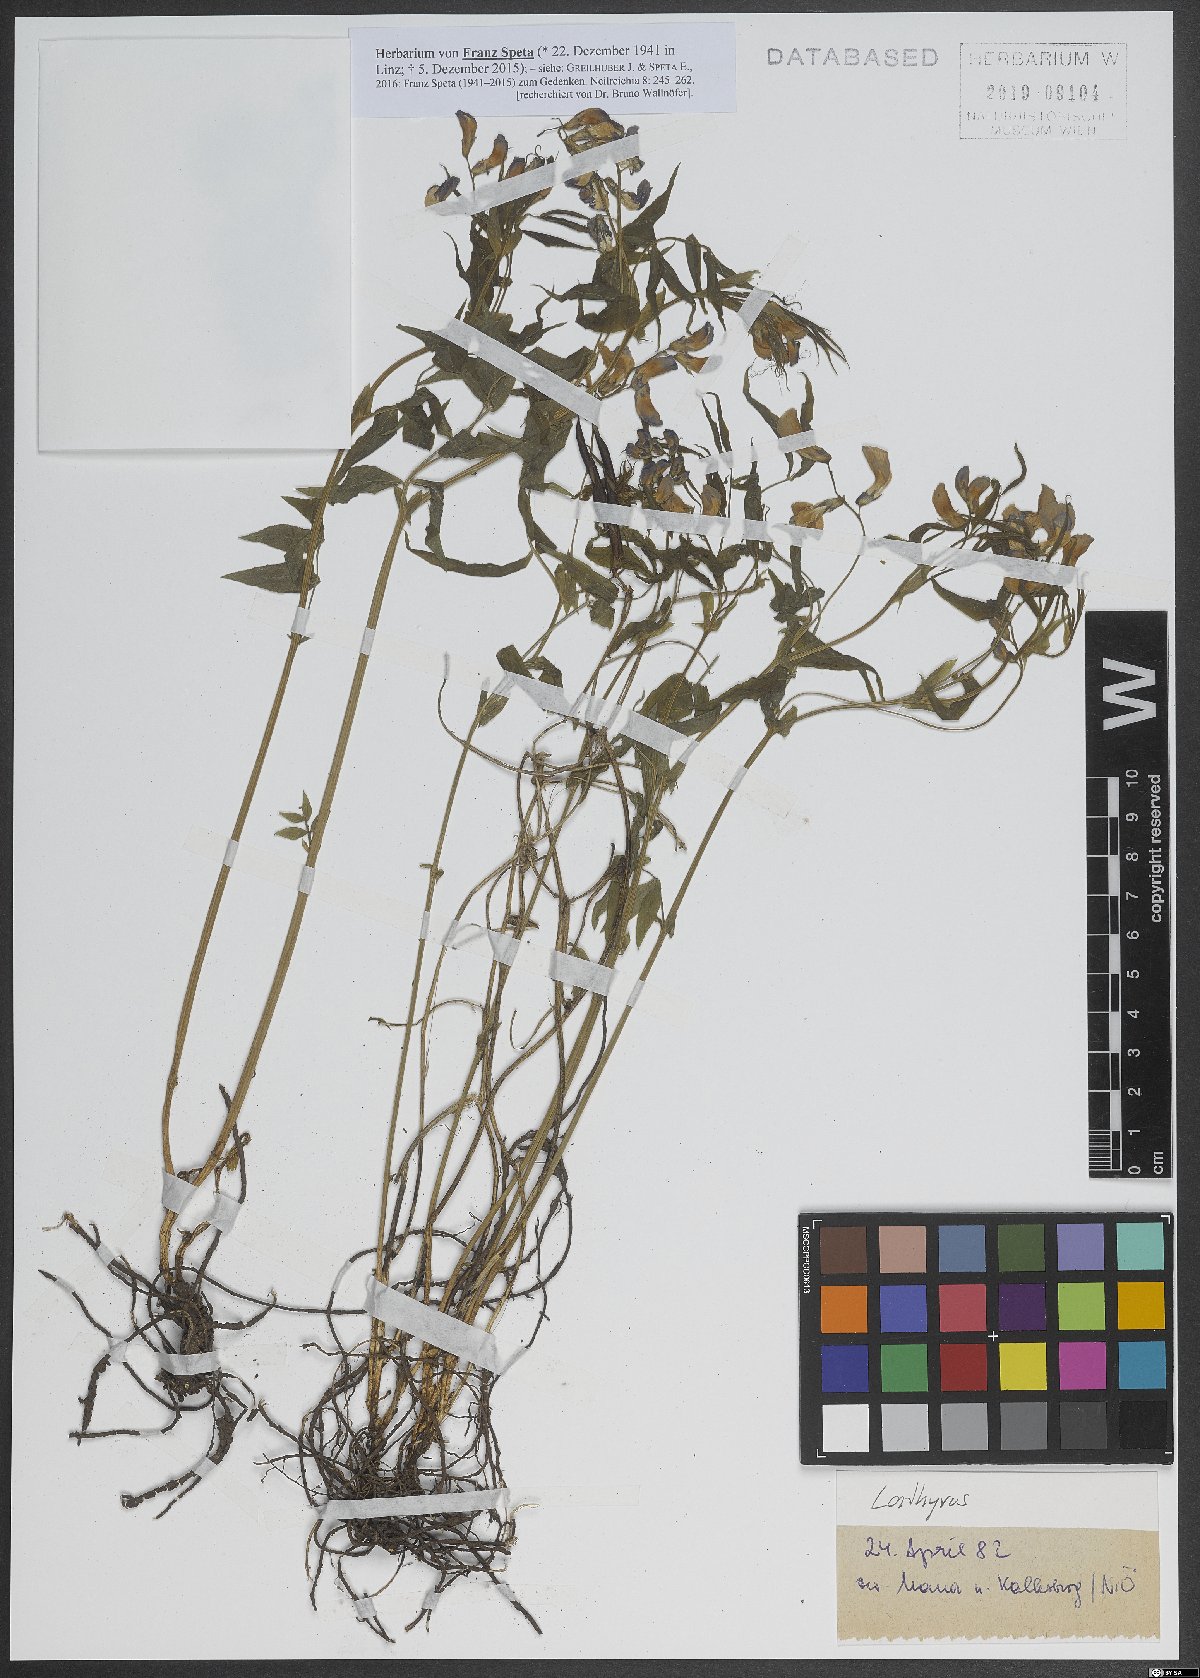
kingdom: Plantae
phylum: Tracheophyta
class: Magnoliopsida
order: Fabales
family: Fabaceae
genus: Lathyrus
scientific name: Lathyrus
